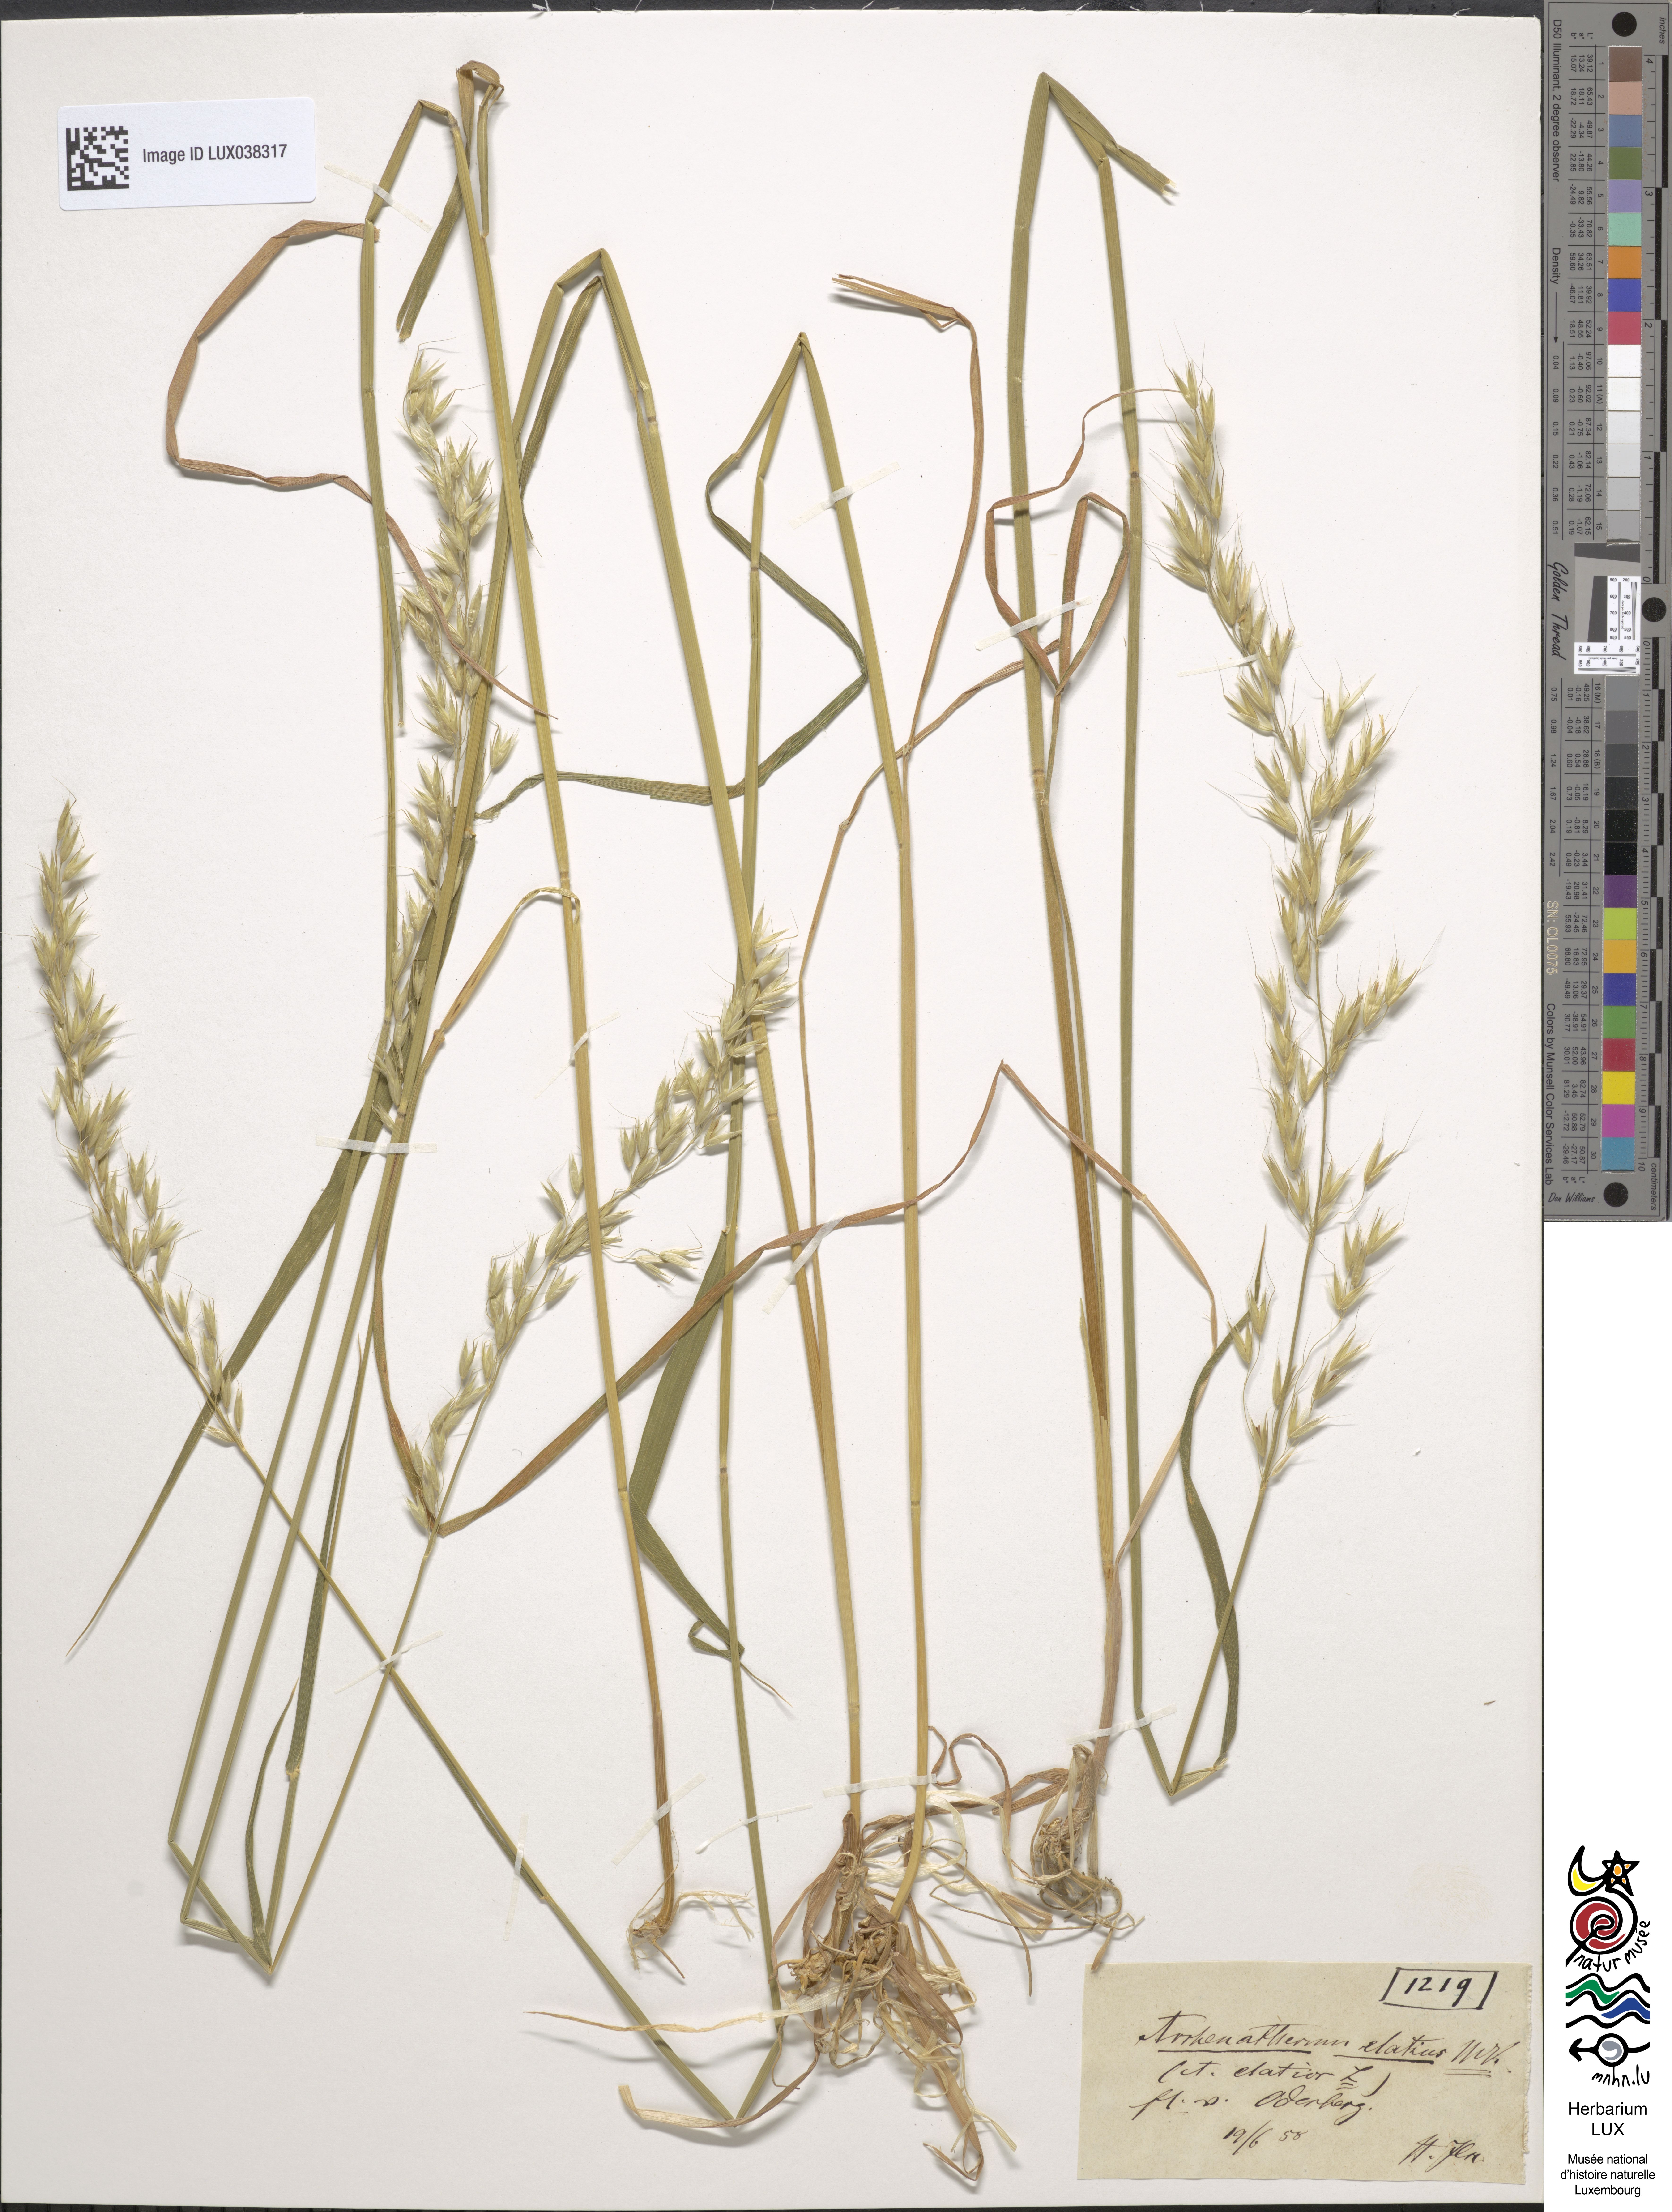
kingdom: Plantae
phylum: Tracheophyta
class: Liliopsida
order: Poales
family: Poaceae
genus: Arrhenatherum
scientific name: Arrhenatherum elatius
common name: Tall oatgrass
